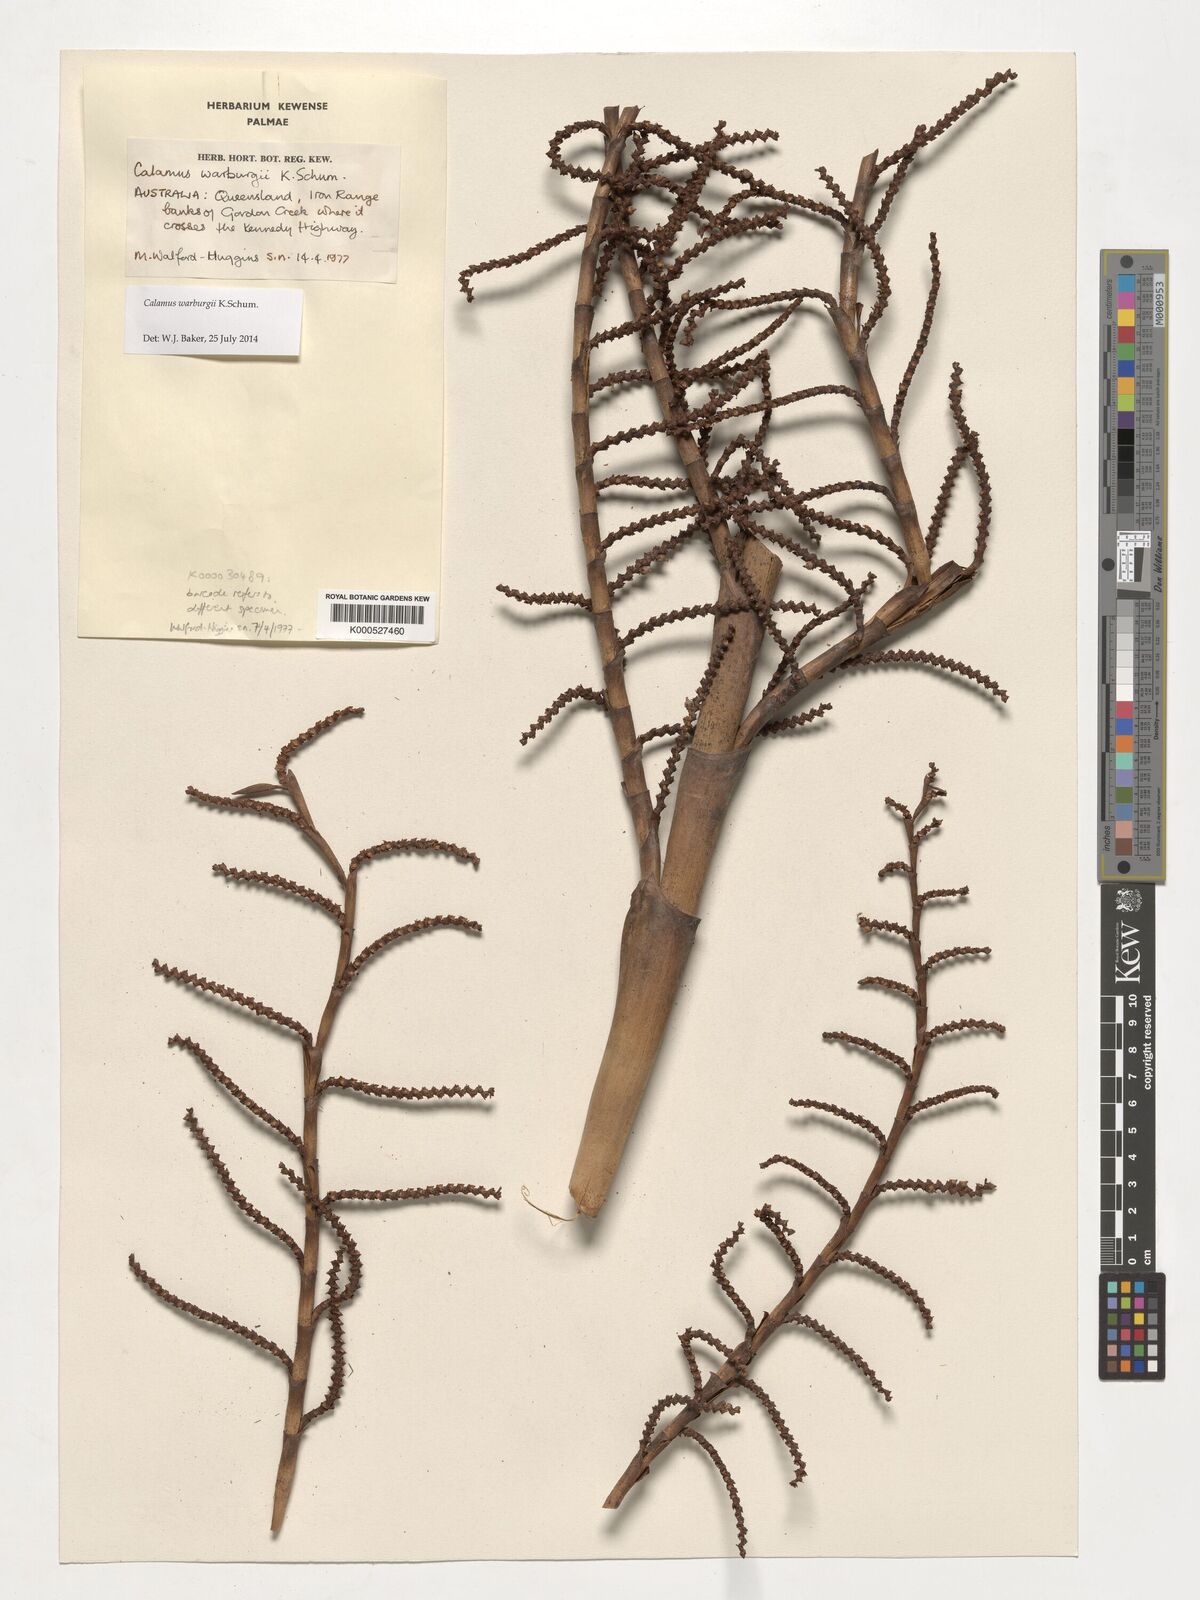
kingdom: Plantae
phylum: Tracheophyta
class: Liliopsida
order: Arecales
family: Arecaceae
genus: Calamus
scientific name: Calamus warburgii
